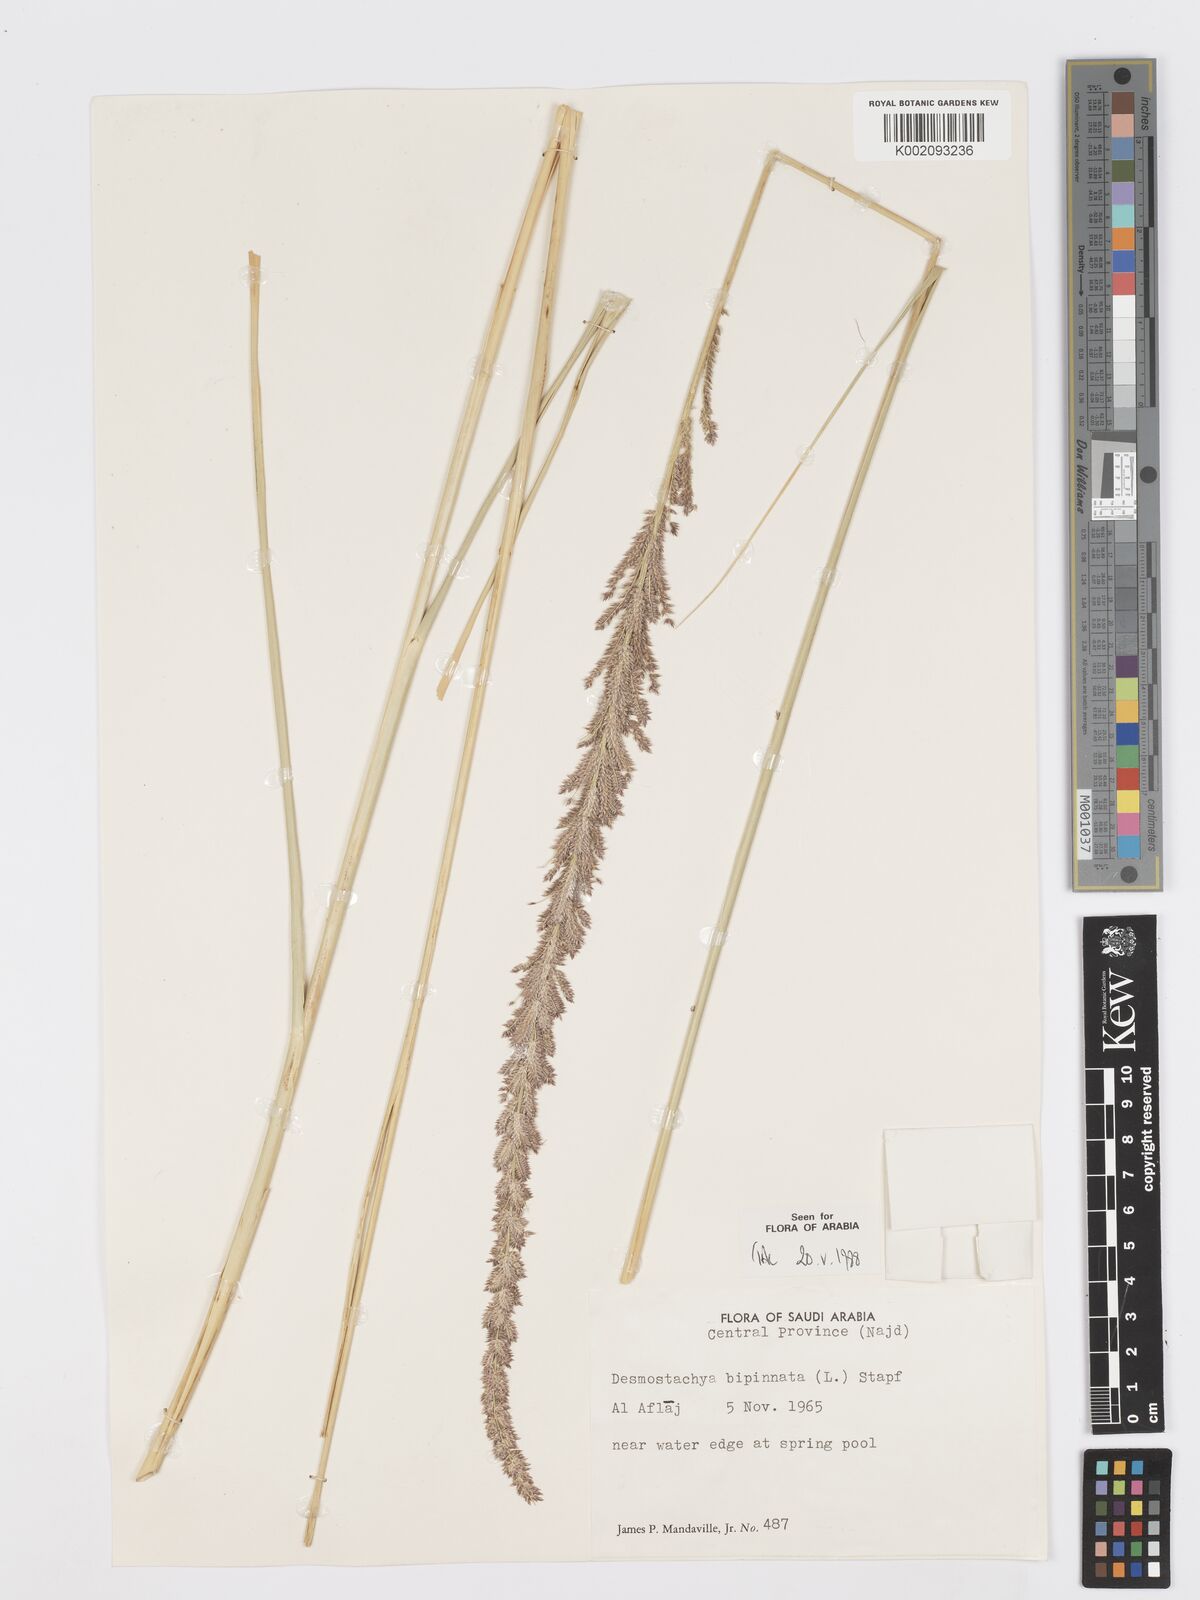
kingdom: Plantae
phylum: Tracheophyta
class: Liliopsida
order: Poales
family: Poaceae
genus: Desmostachya
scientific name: Desmostachya bipinnata
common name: Crowfoot grass
